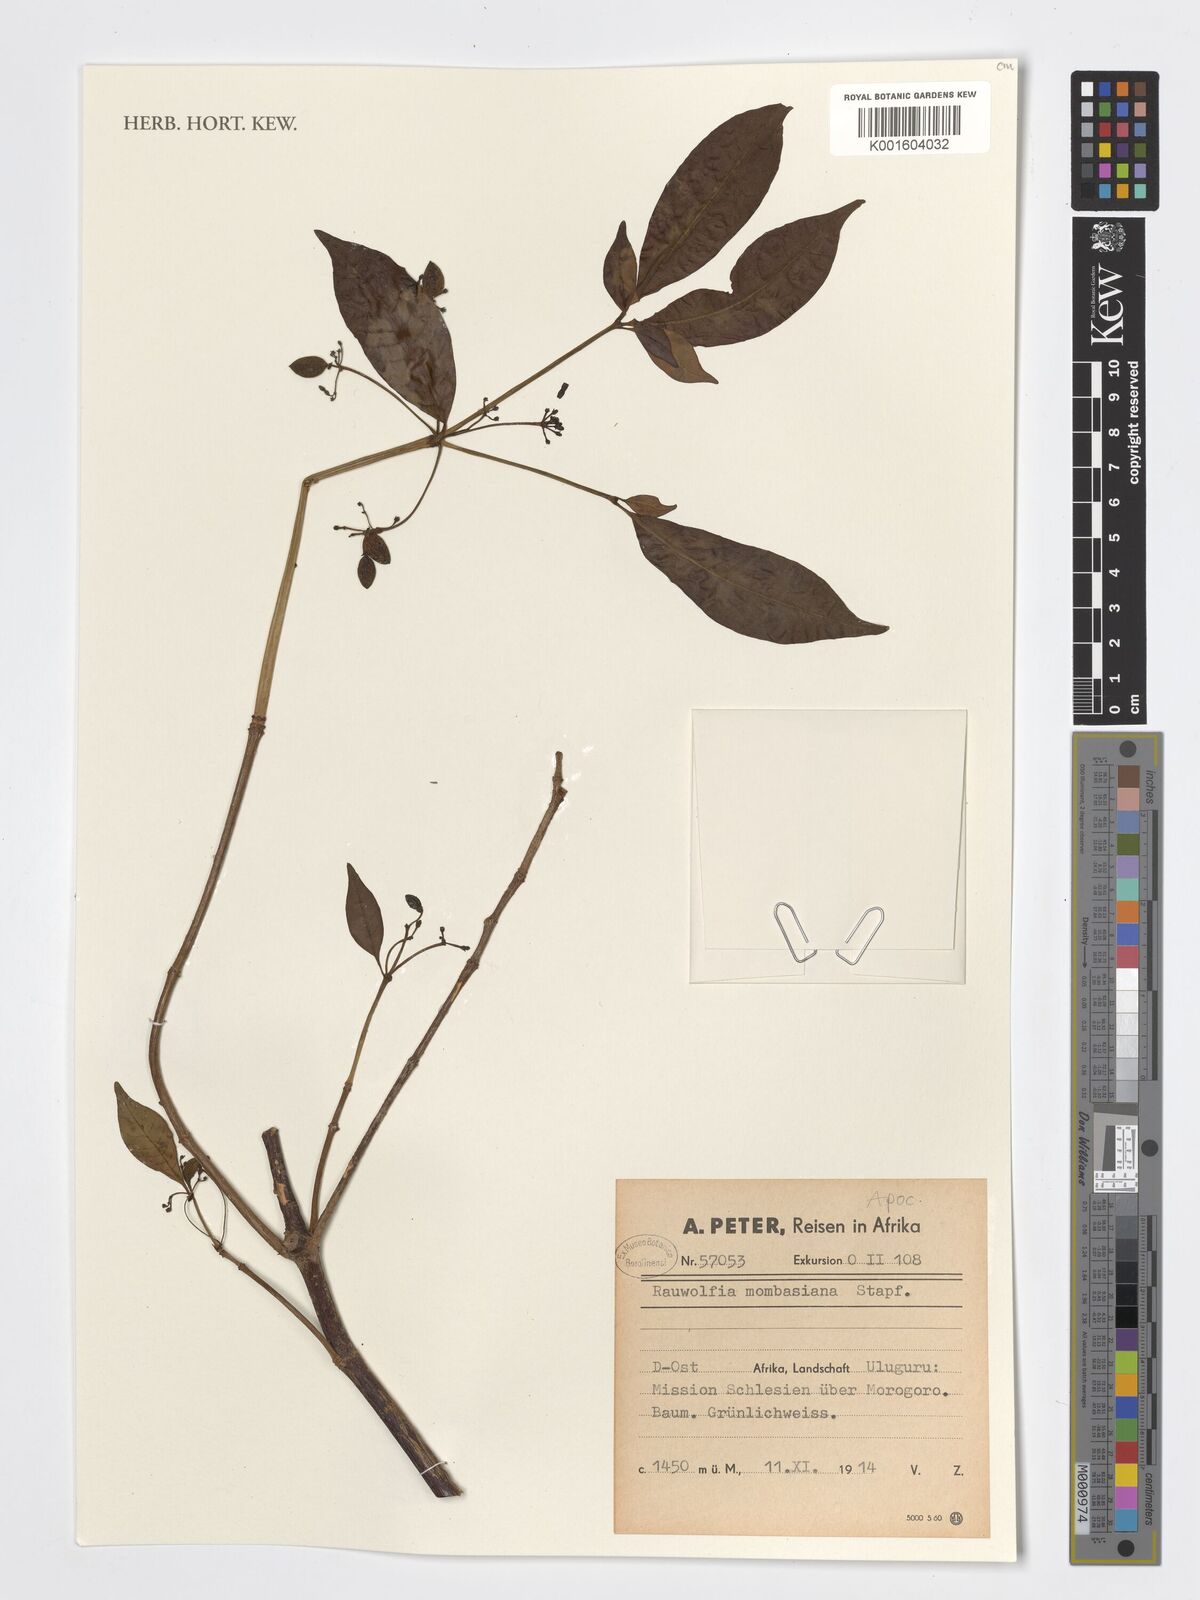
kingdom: Plantae
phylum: Tracheophyta
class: Magnoliopsida
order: Gentianales
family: Apocynaceae
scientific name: Apocynaceae
